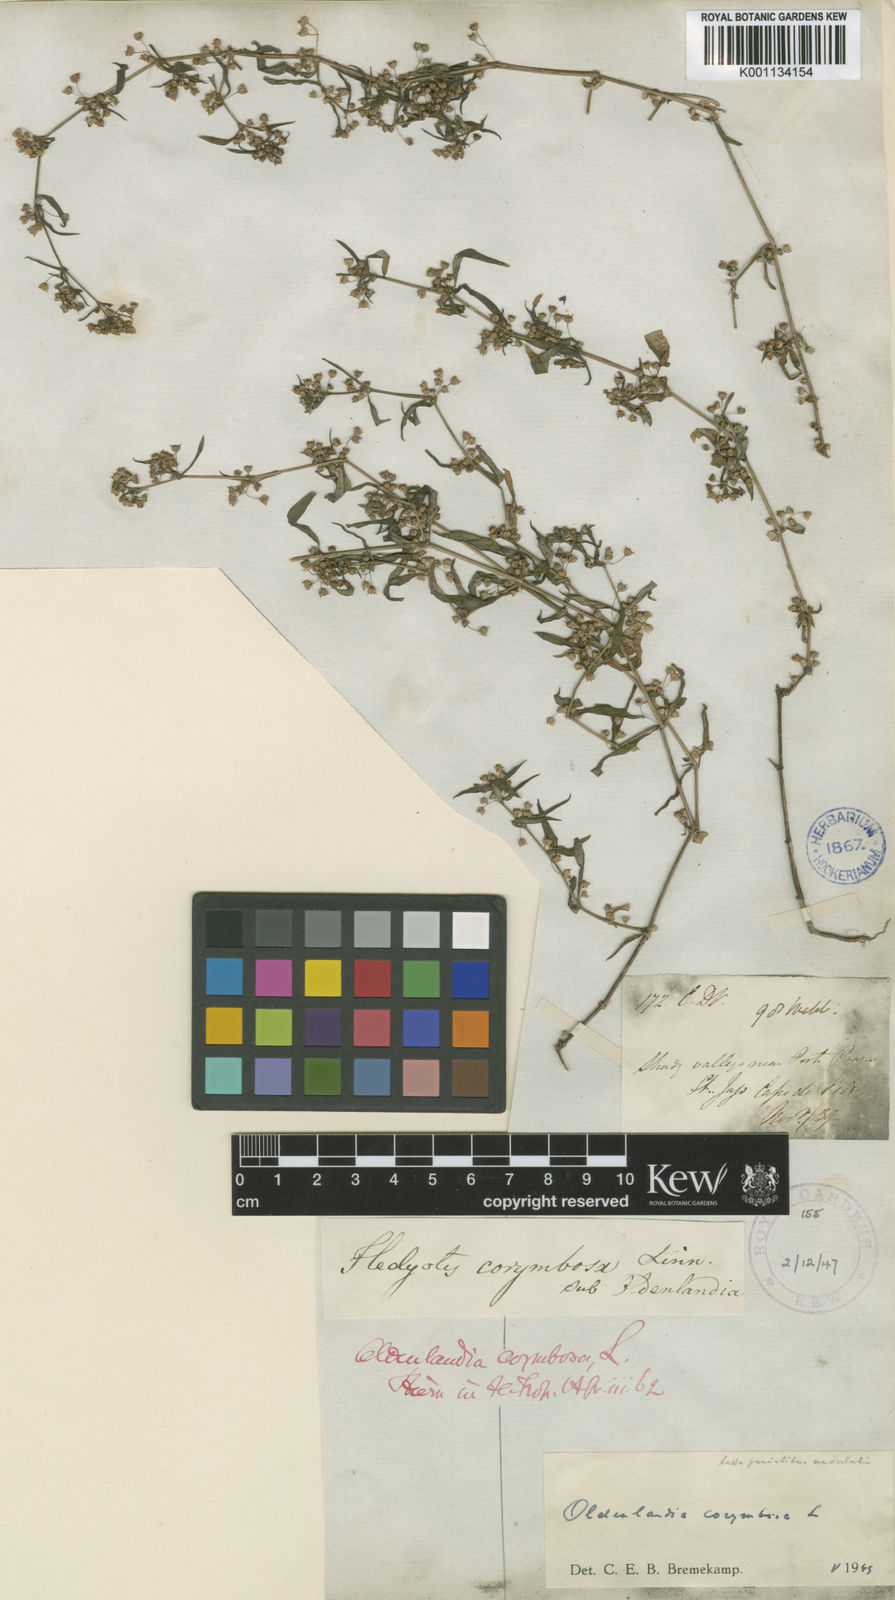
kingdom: Plantae
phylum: Tracheophyta
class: Magnoliopsida
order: Gentianales
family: Rubiaceae
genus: Oldenlandia
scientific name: Oldenlandia corymbosa
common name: Flat-top mille graines
